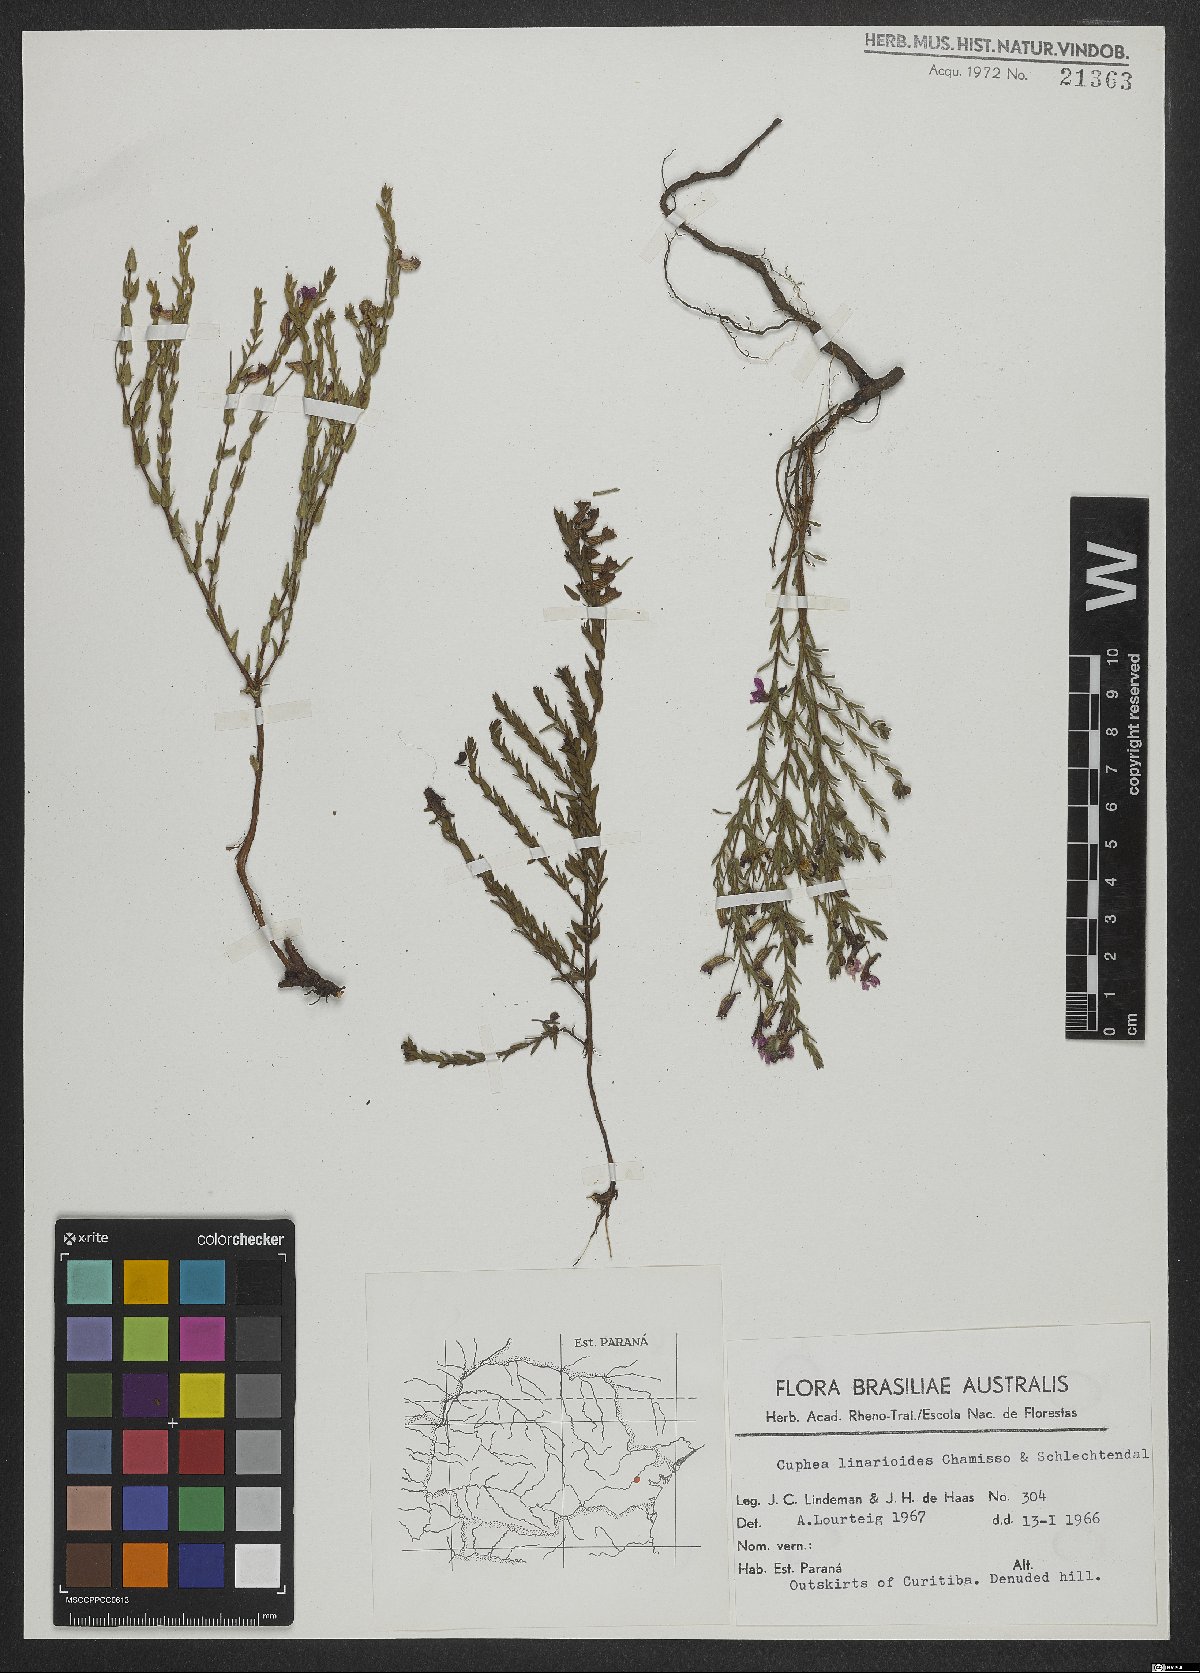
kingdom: Plantae
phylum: Tracheophyta
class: Magnoliopsida
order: Myrtales
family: Lythraceae
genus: Cuphea
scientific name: Cuphea linarioides
